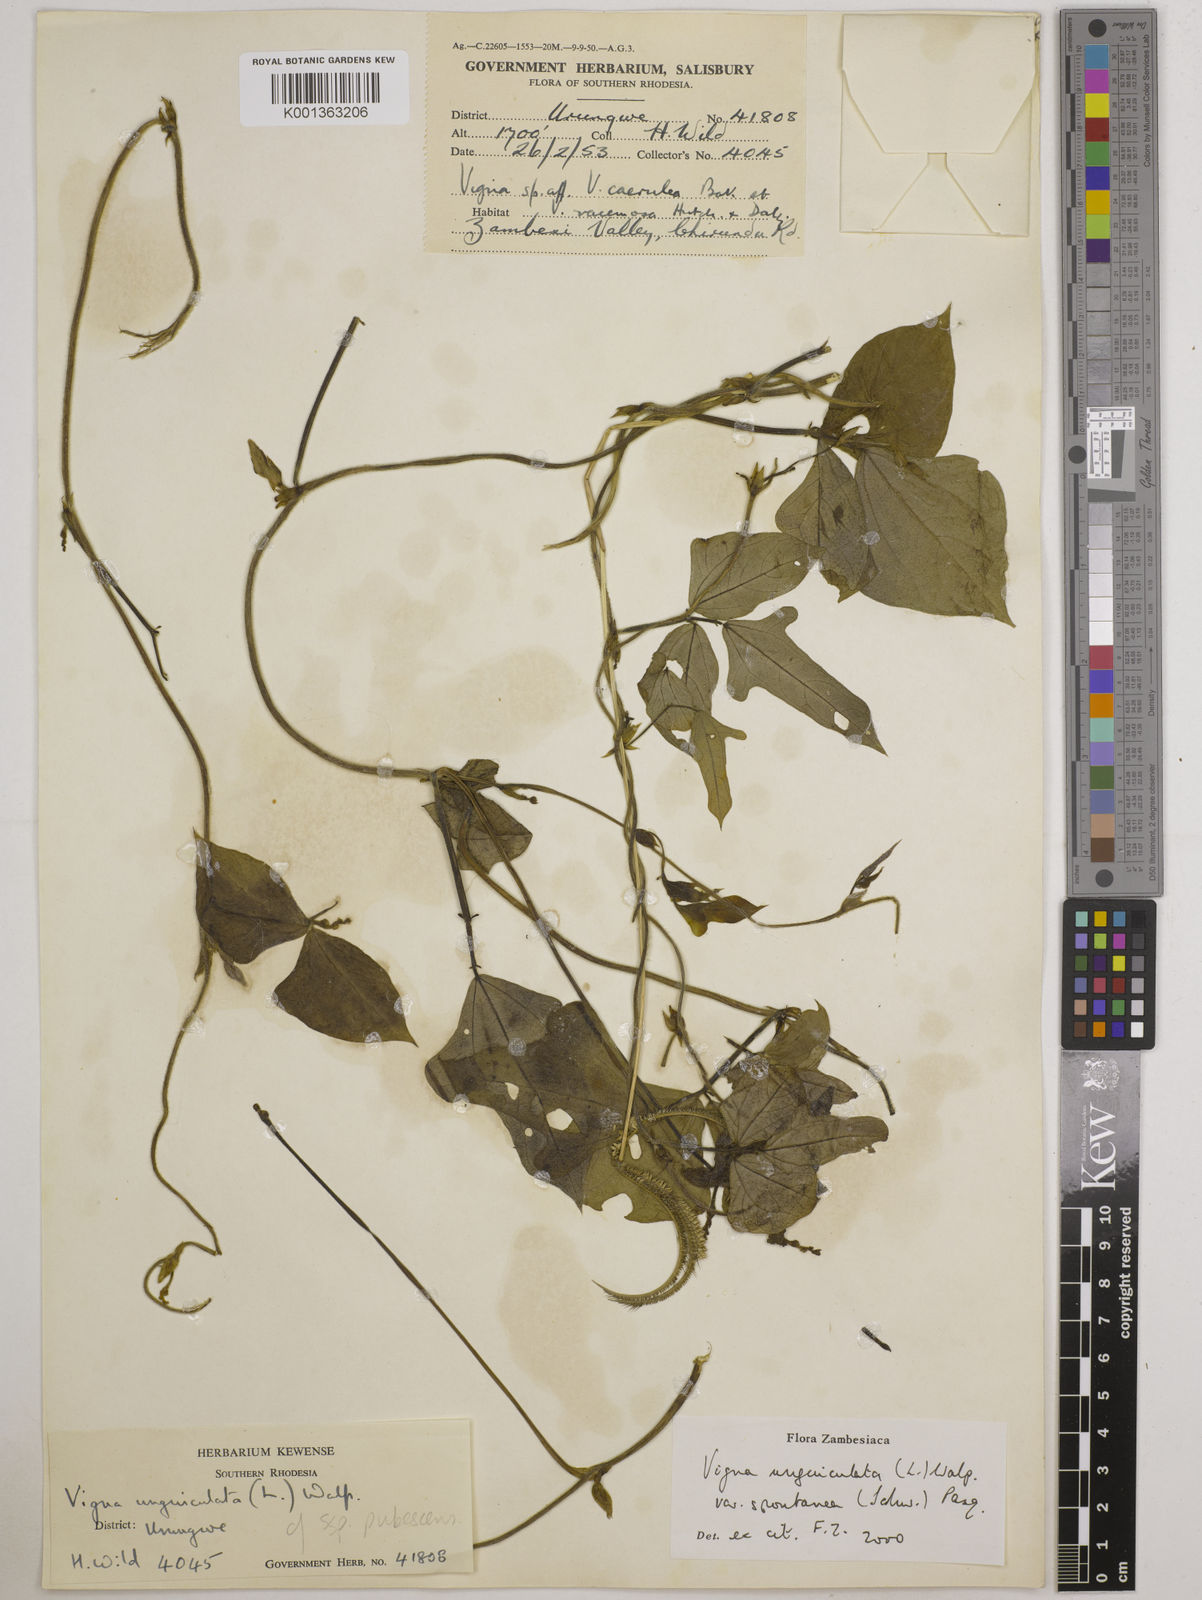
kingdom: Plantae
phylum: Tracheophyta
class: Magnoliopsida
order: Fabales
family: Fabaceae
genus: Vigna
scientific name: Vigna unguiculata
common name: Cowpea
